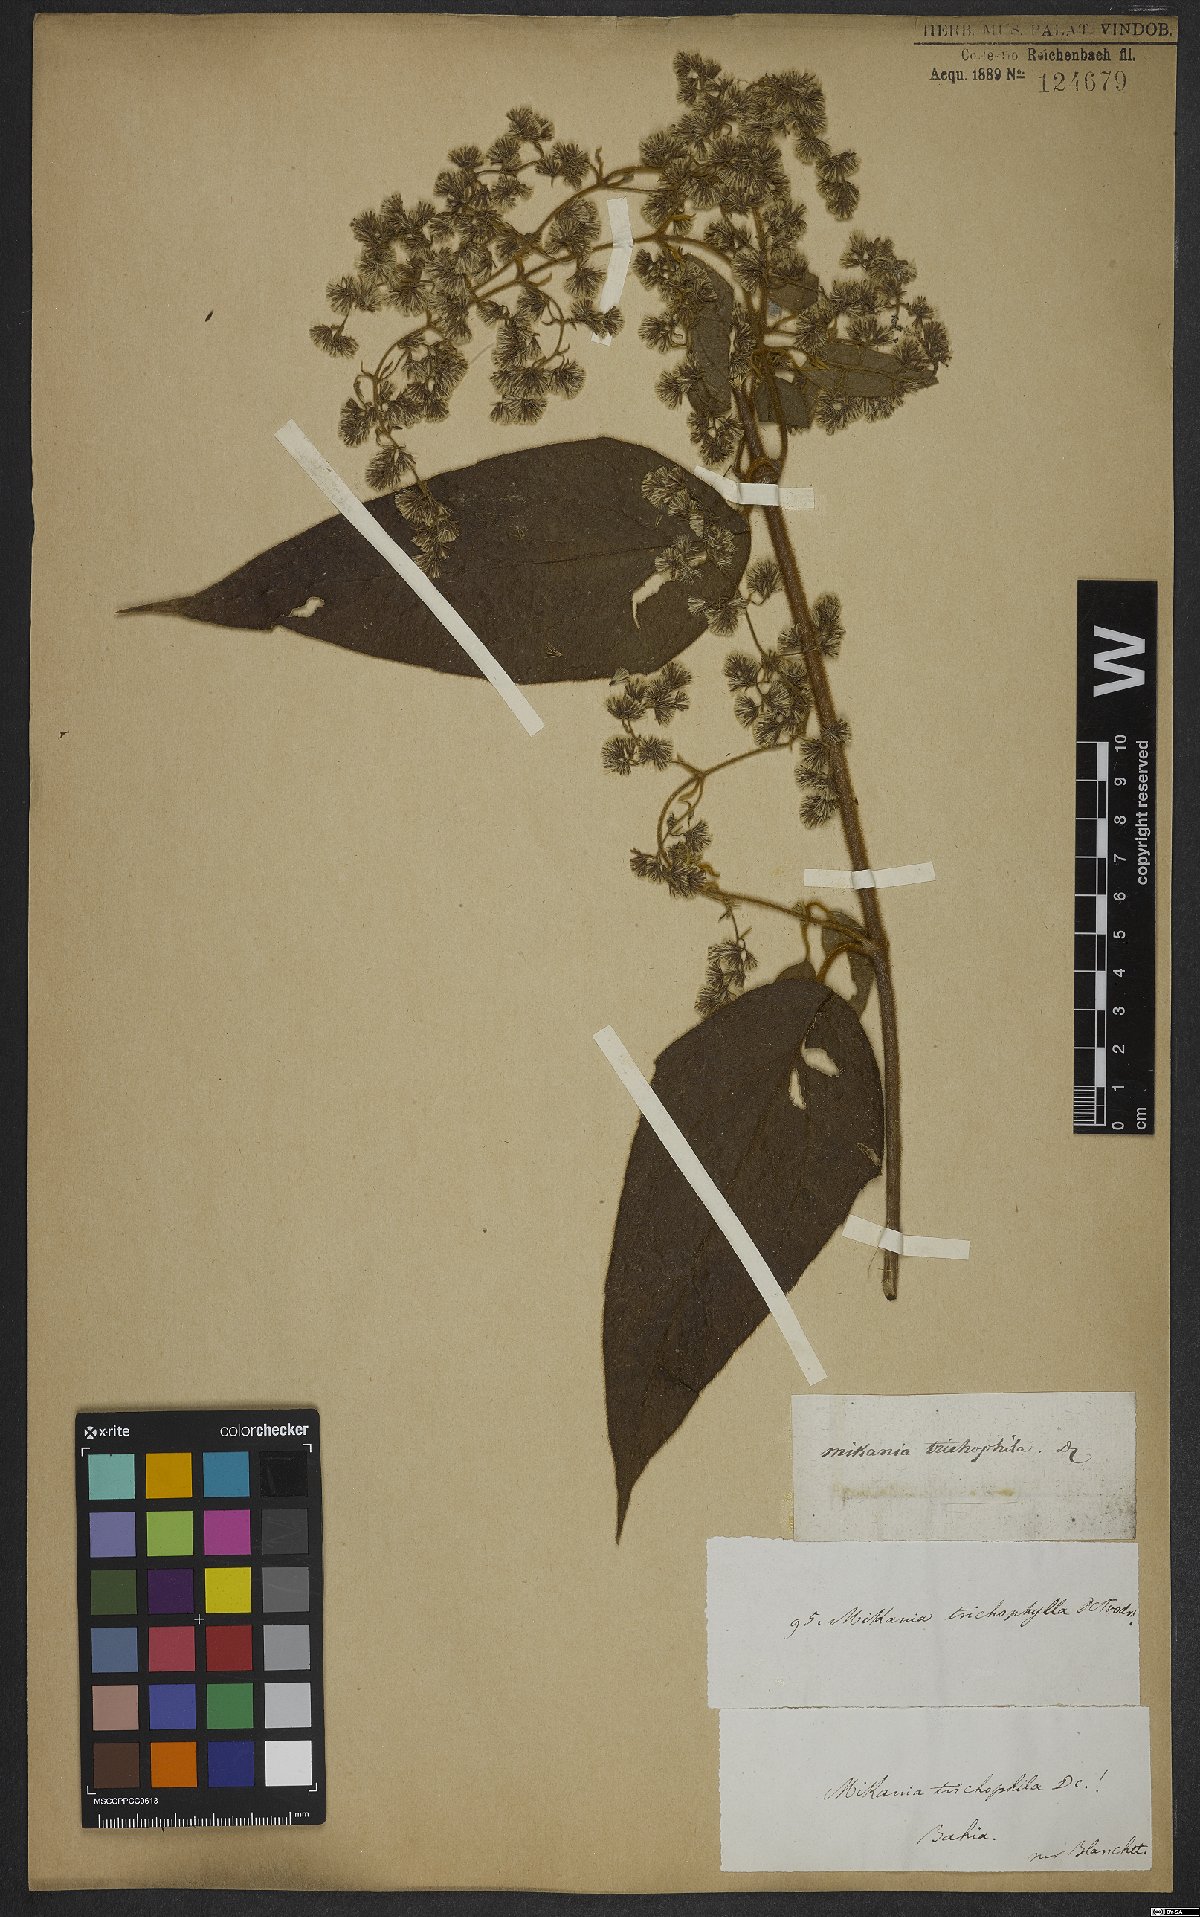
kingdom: Plantae
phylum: Tracheophyta
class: Magnoliopsida
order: Asterales
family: Asteraceae
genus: Mikania
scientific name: Mikania trichophila
